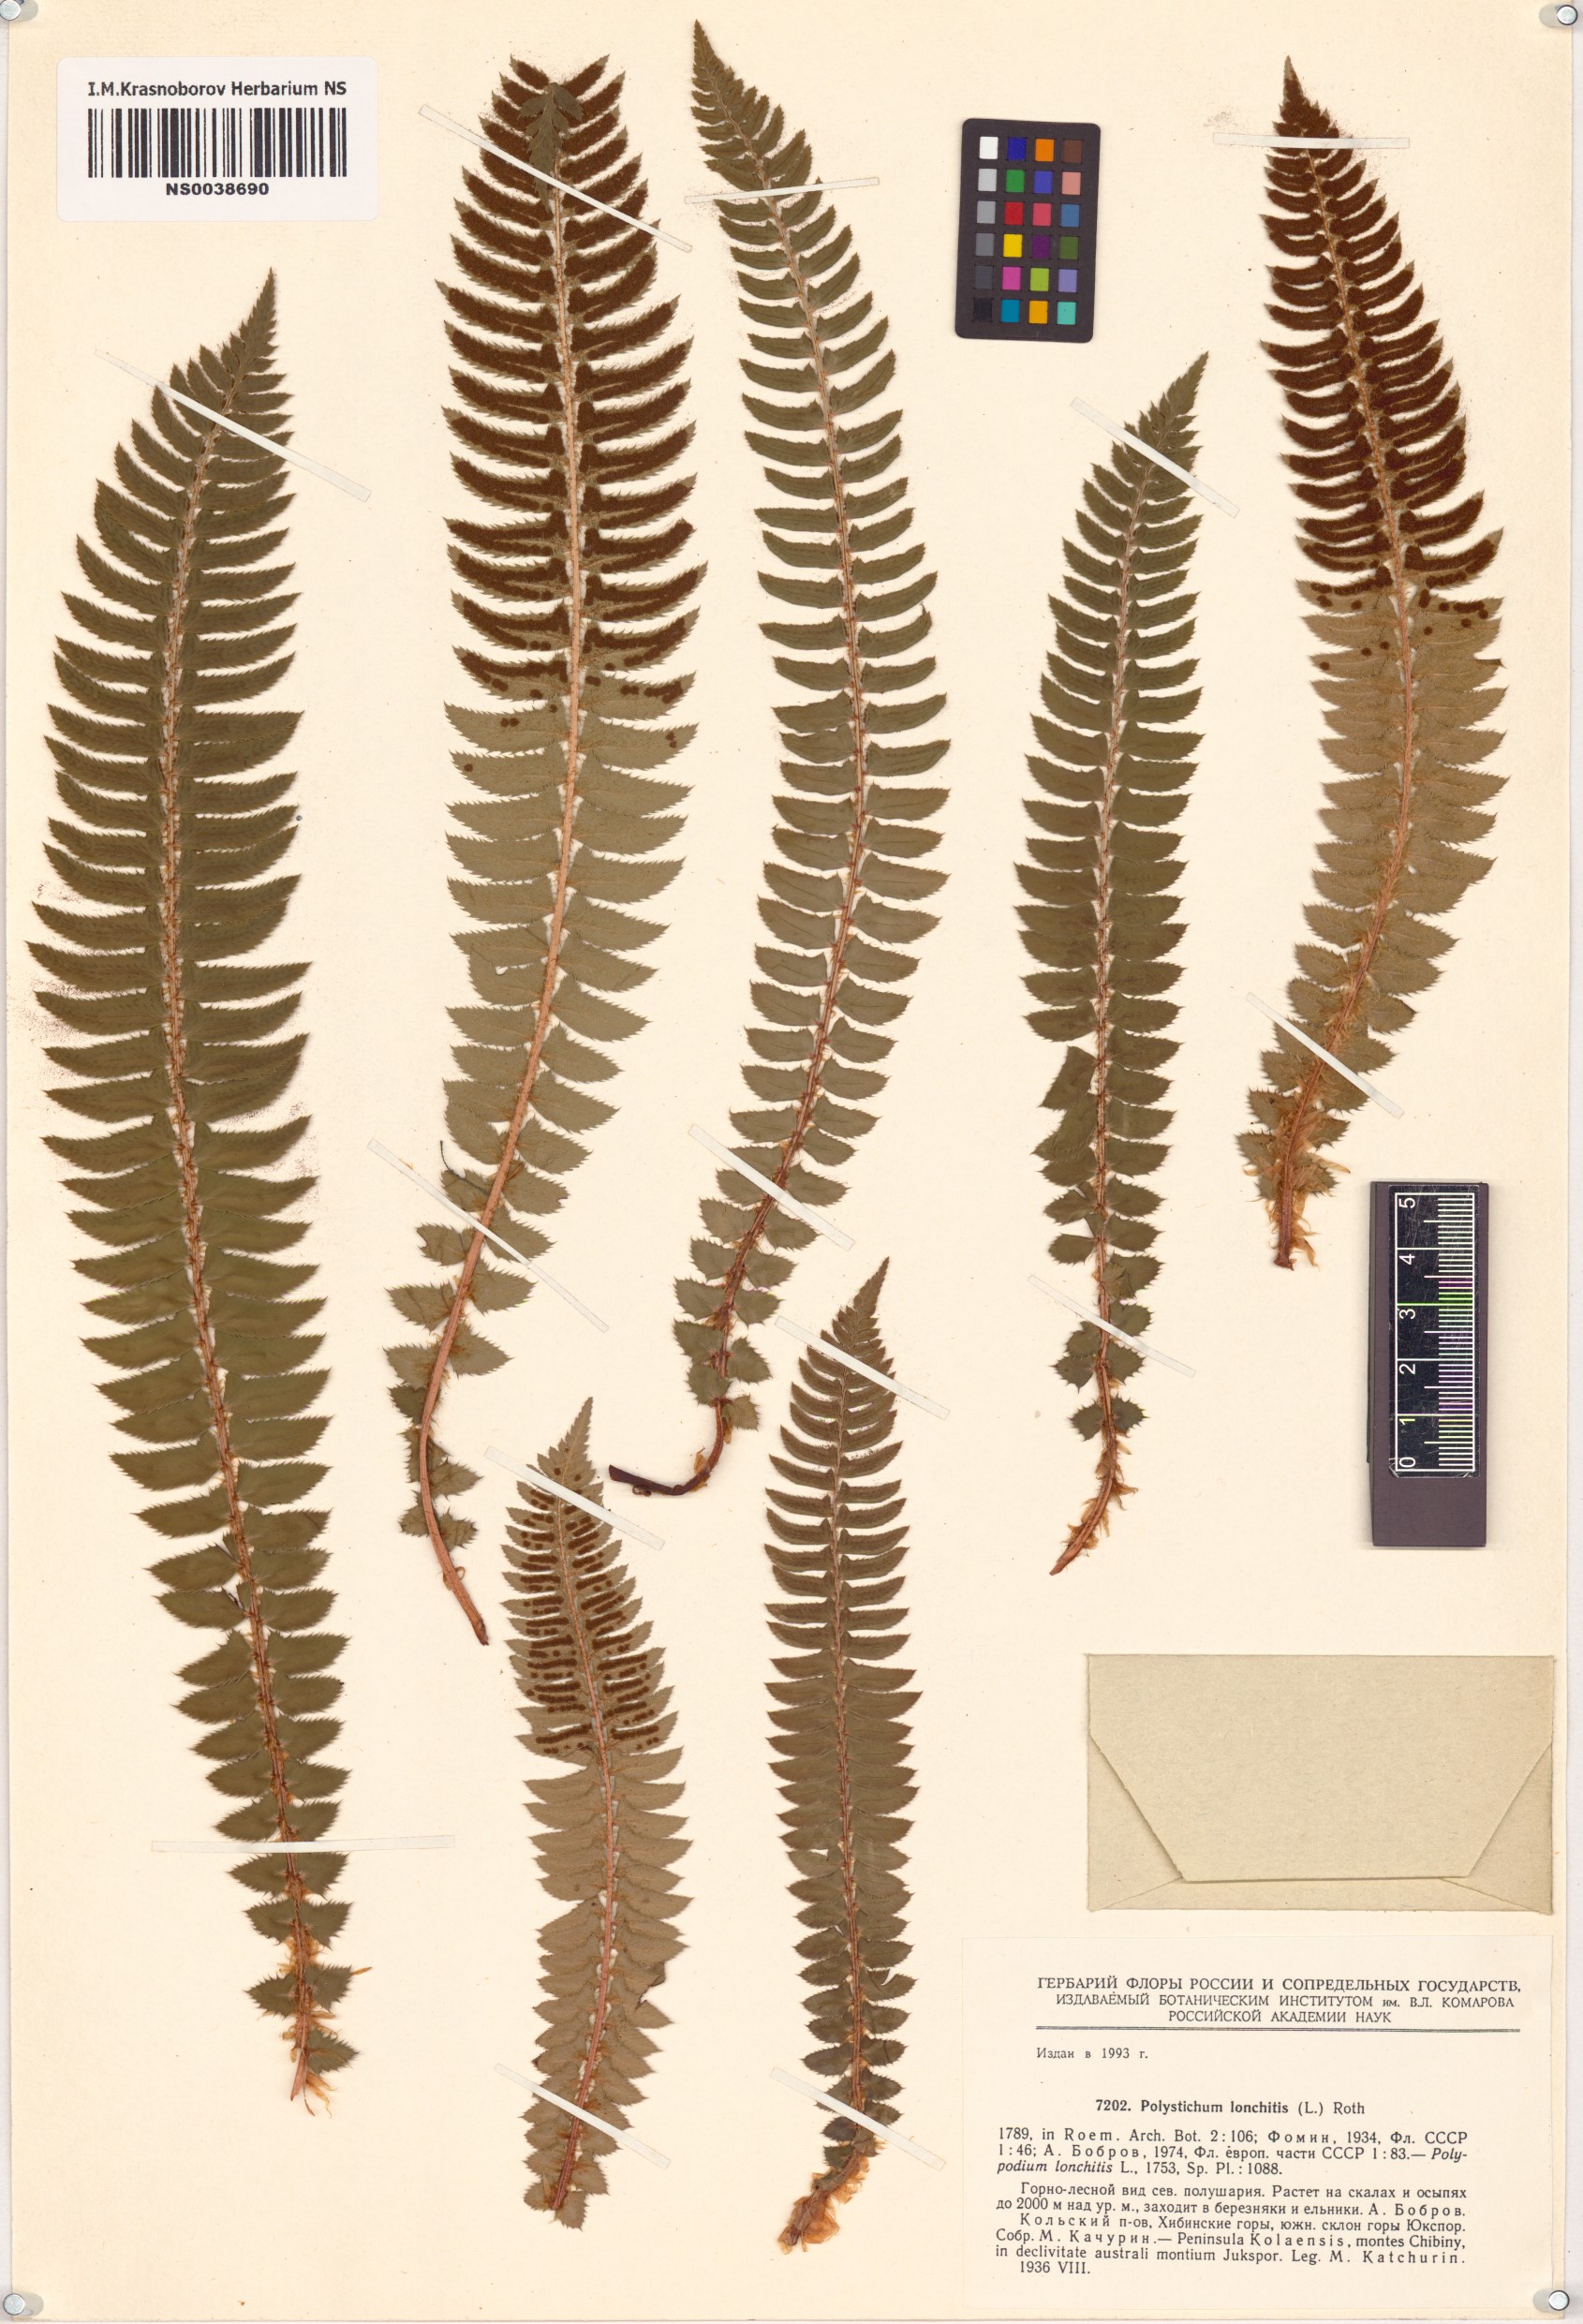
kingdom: Plantae
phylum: Tracheophyta
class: Polypodiopsida
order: Polypodiales
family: Dryopteridaceae
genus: Polystichum
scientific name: Polystichum lonchitis
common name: Holly fern
